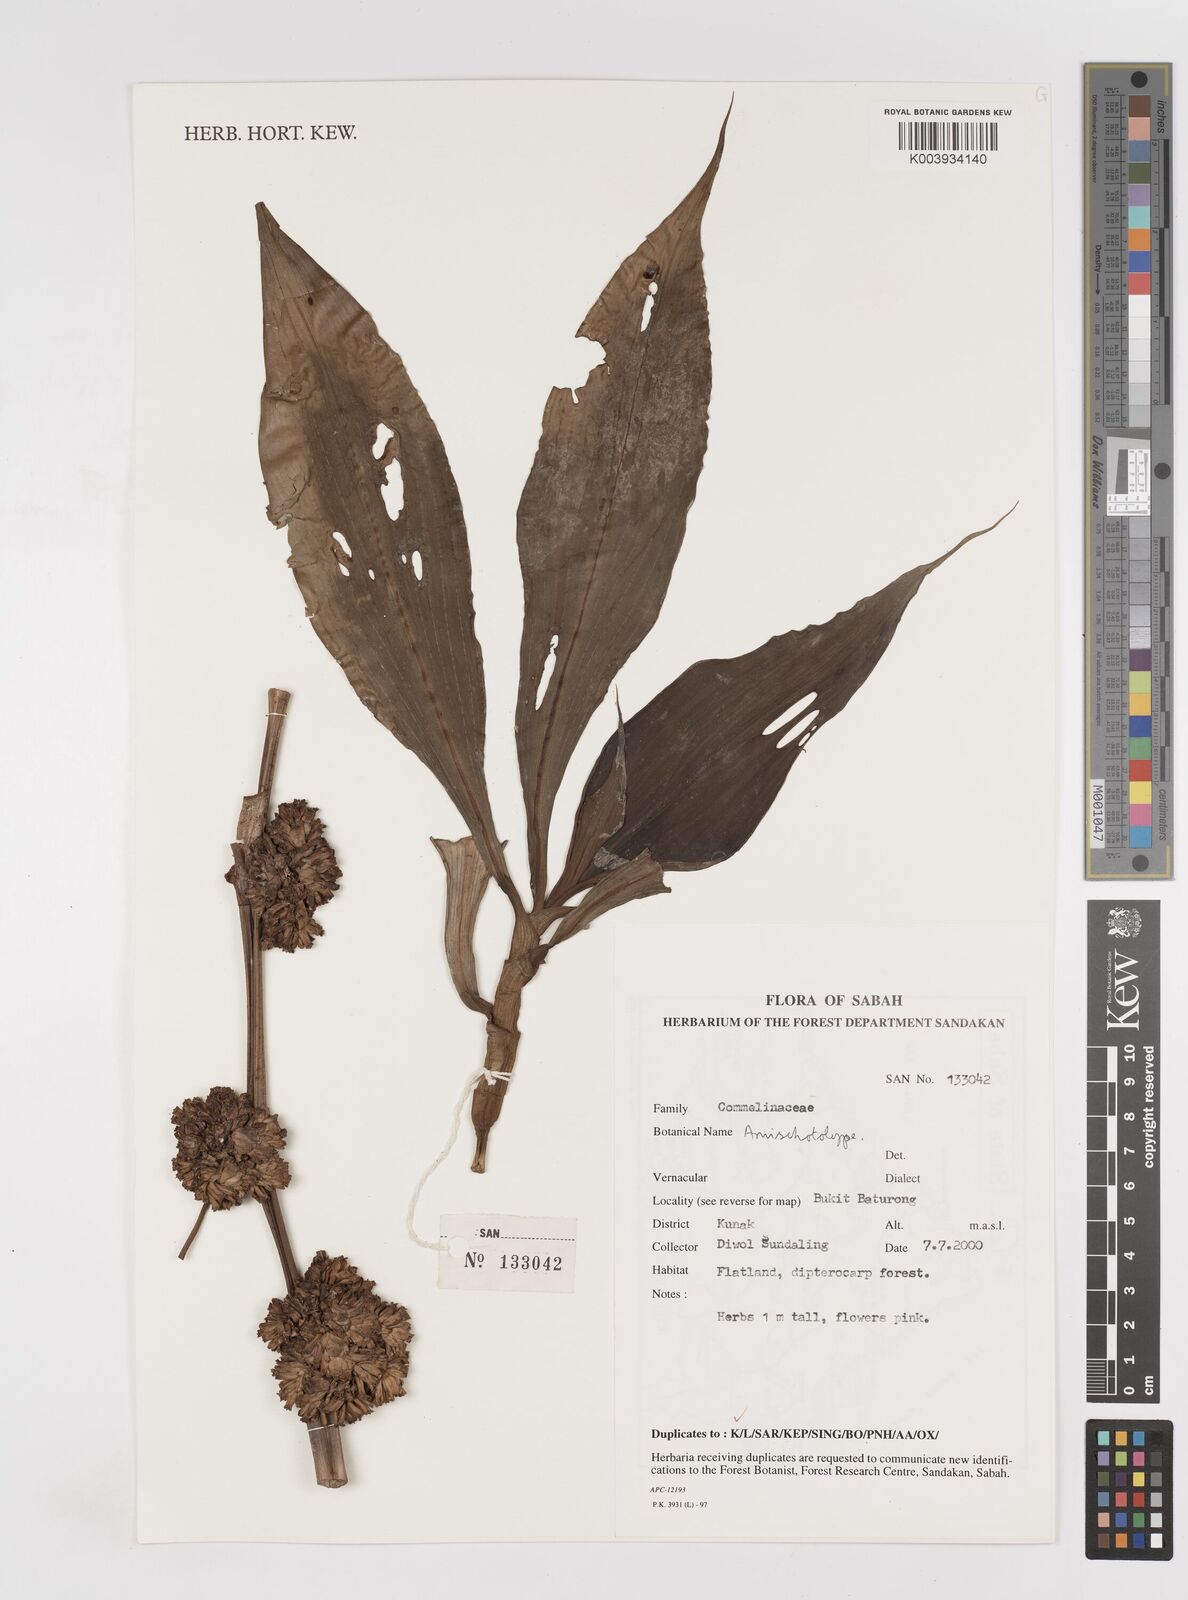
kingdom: Plantae
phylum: Tracheophyta
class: Liliopsida
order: Commelinales
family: Commelinaceae
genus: Amischotolype
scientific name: Amischotolype
